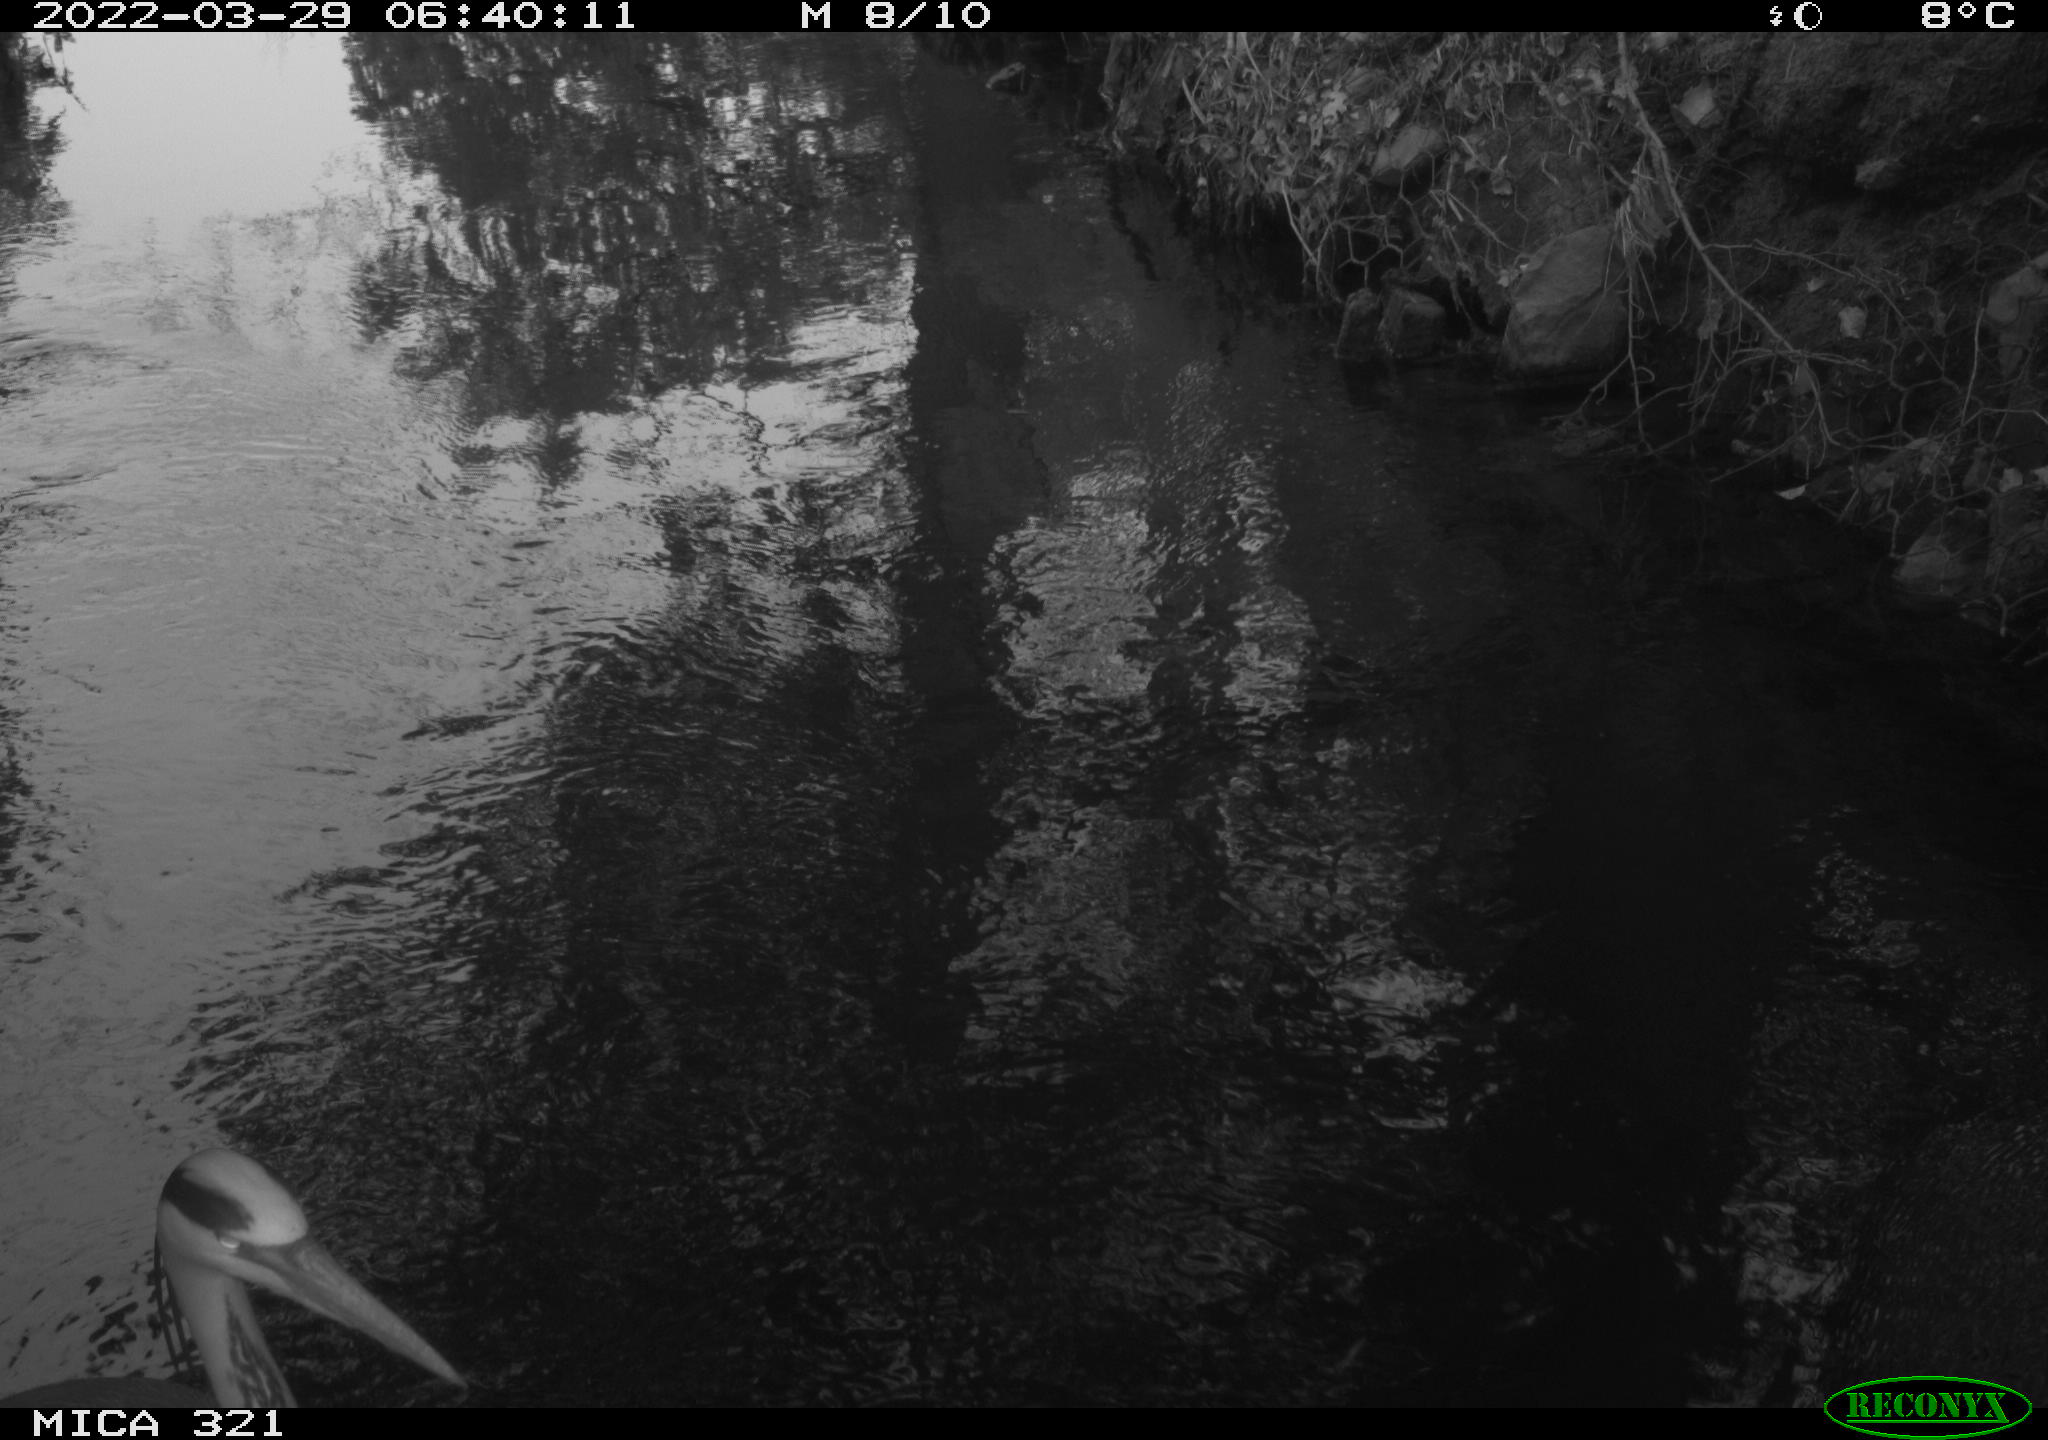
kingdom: Animalia
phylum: Chordata
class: Aves
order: Pelecaniformes
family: Ardeidae
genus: Ardea
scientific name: Ardea
